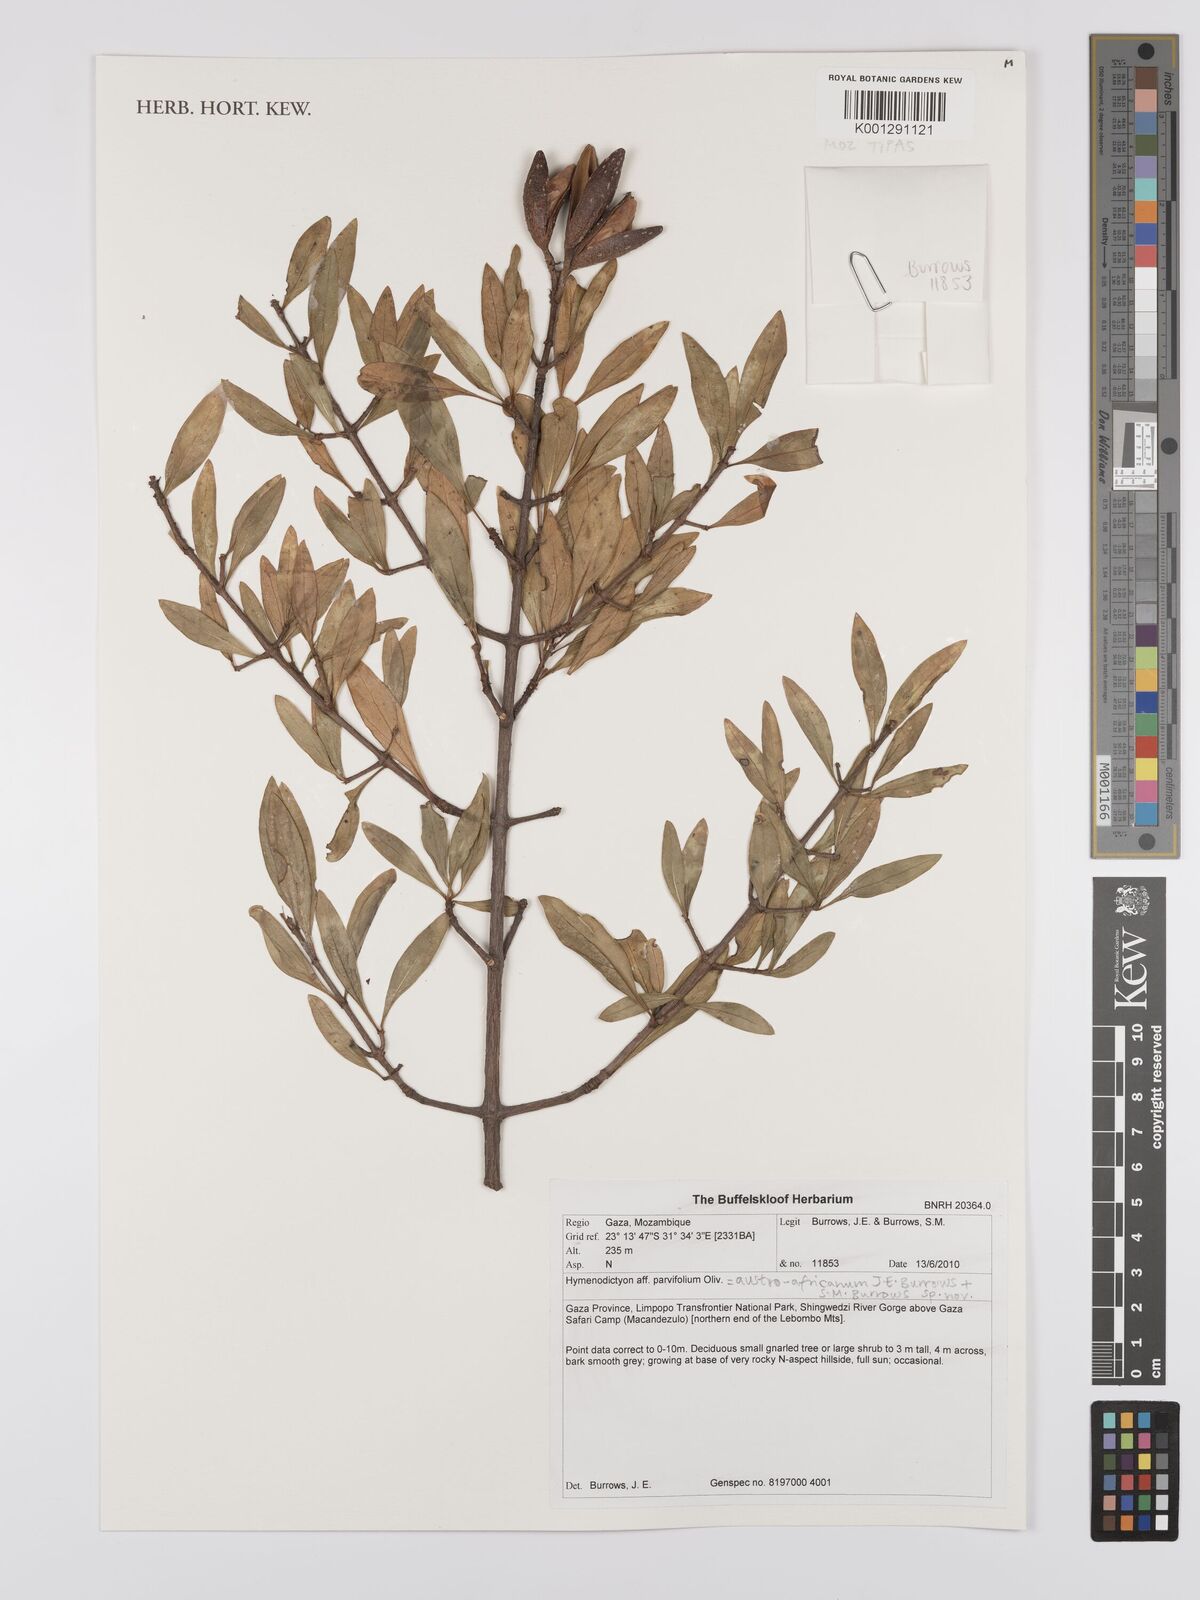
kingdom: Plantae
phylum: Tracheophyta
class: Magnoliopsida
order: Gentianales
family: Rubiaceae
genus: Hymenodictyon
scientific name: Hymenodictyon austroafricanum
